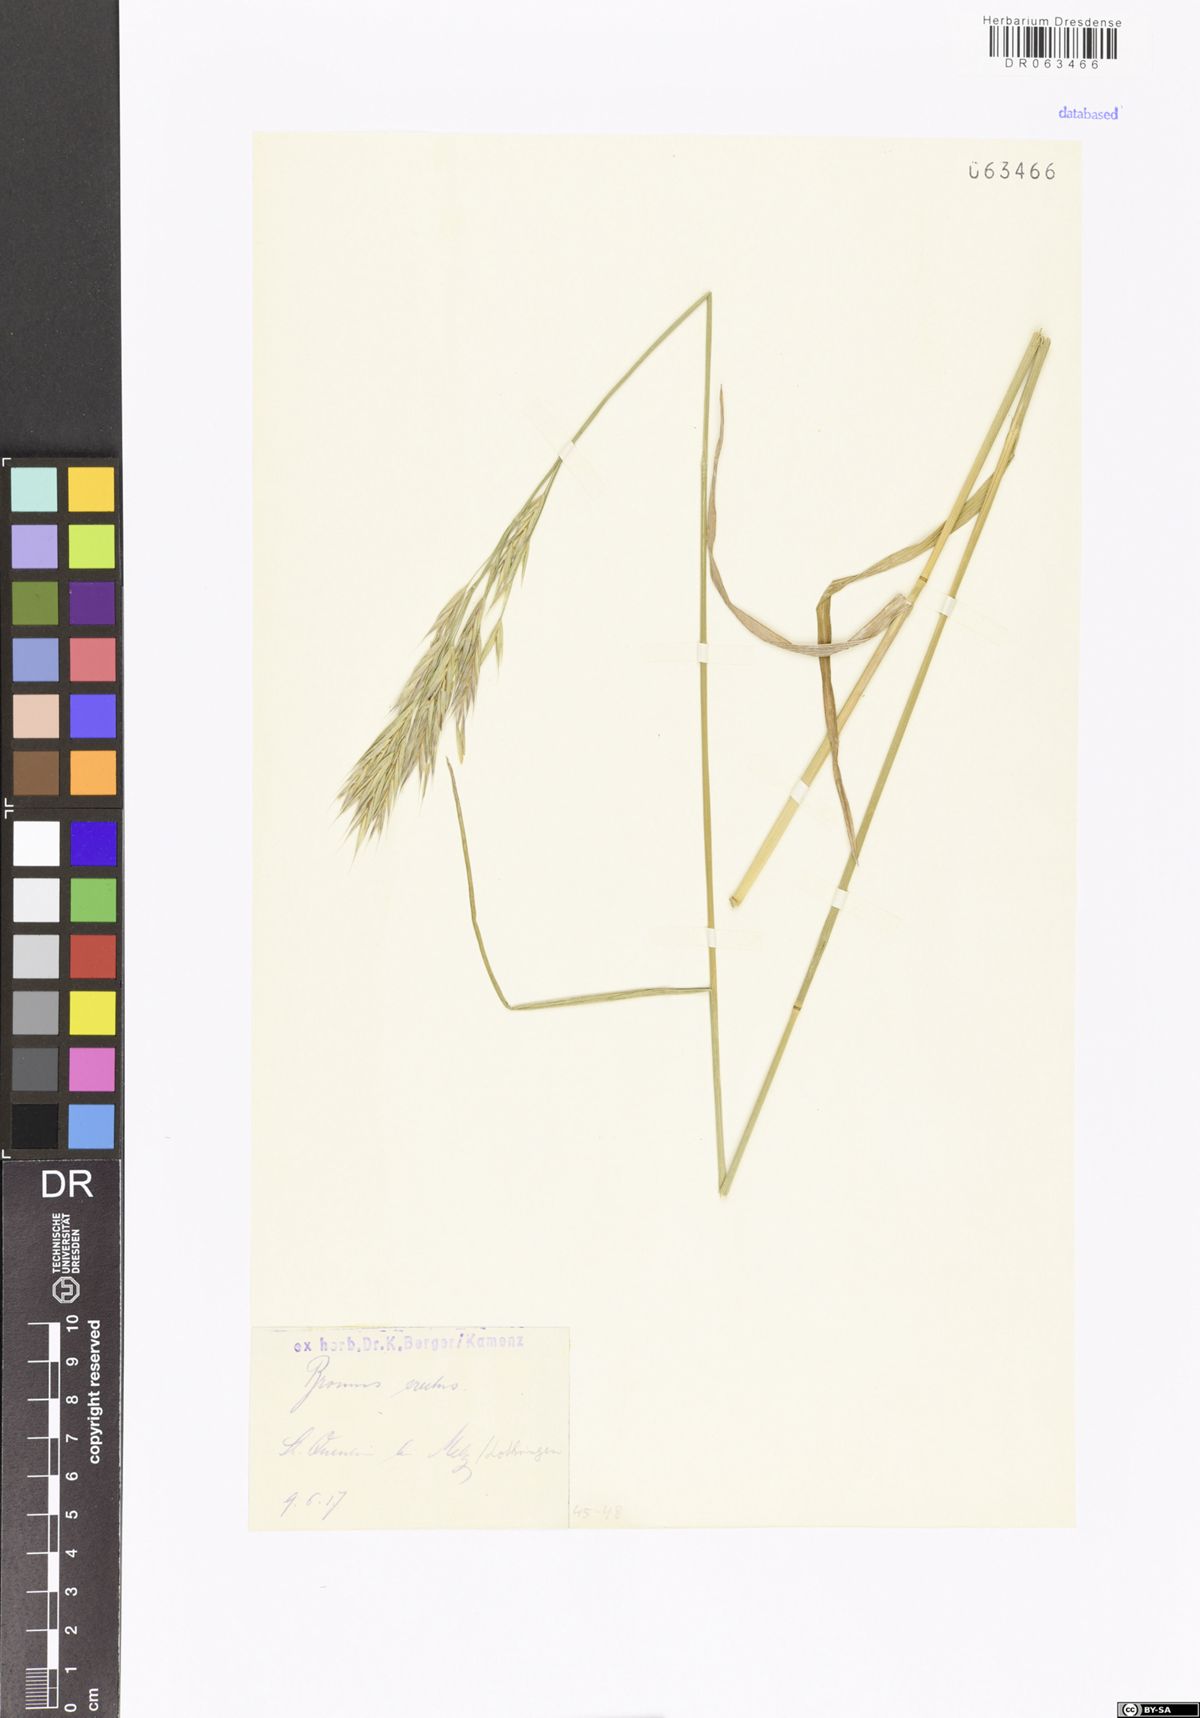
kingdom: Plantae
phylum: Tracheophyta
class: Liliopsida
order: Poales
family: Poaceae
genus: Bromus
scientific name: Bromus erectus
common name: Erect brome
